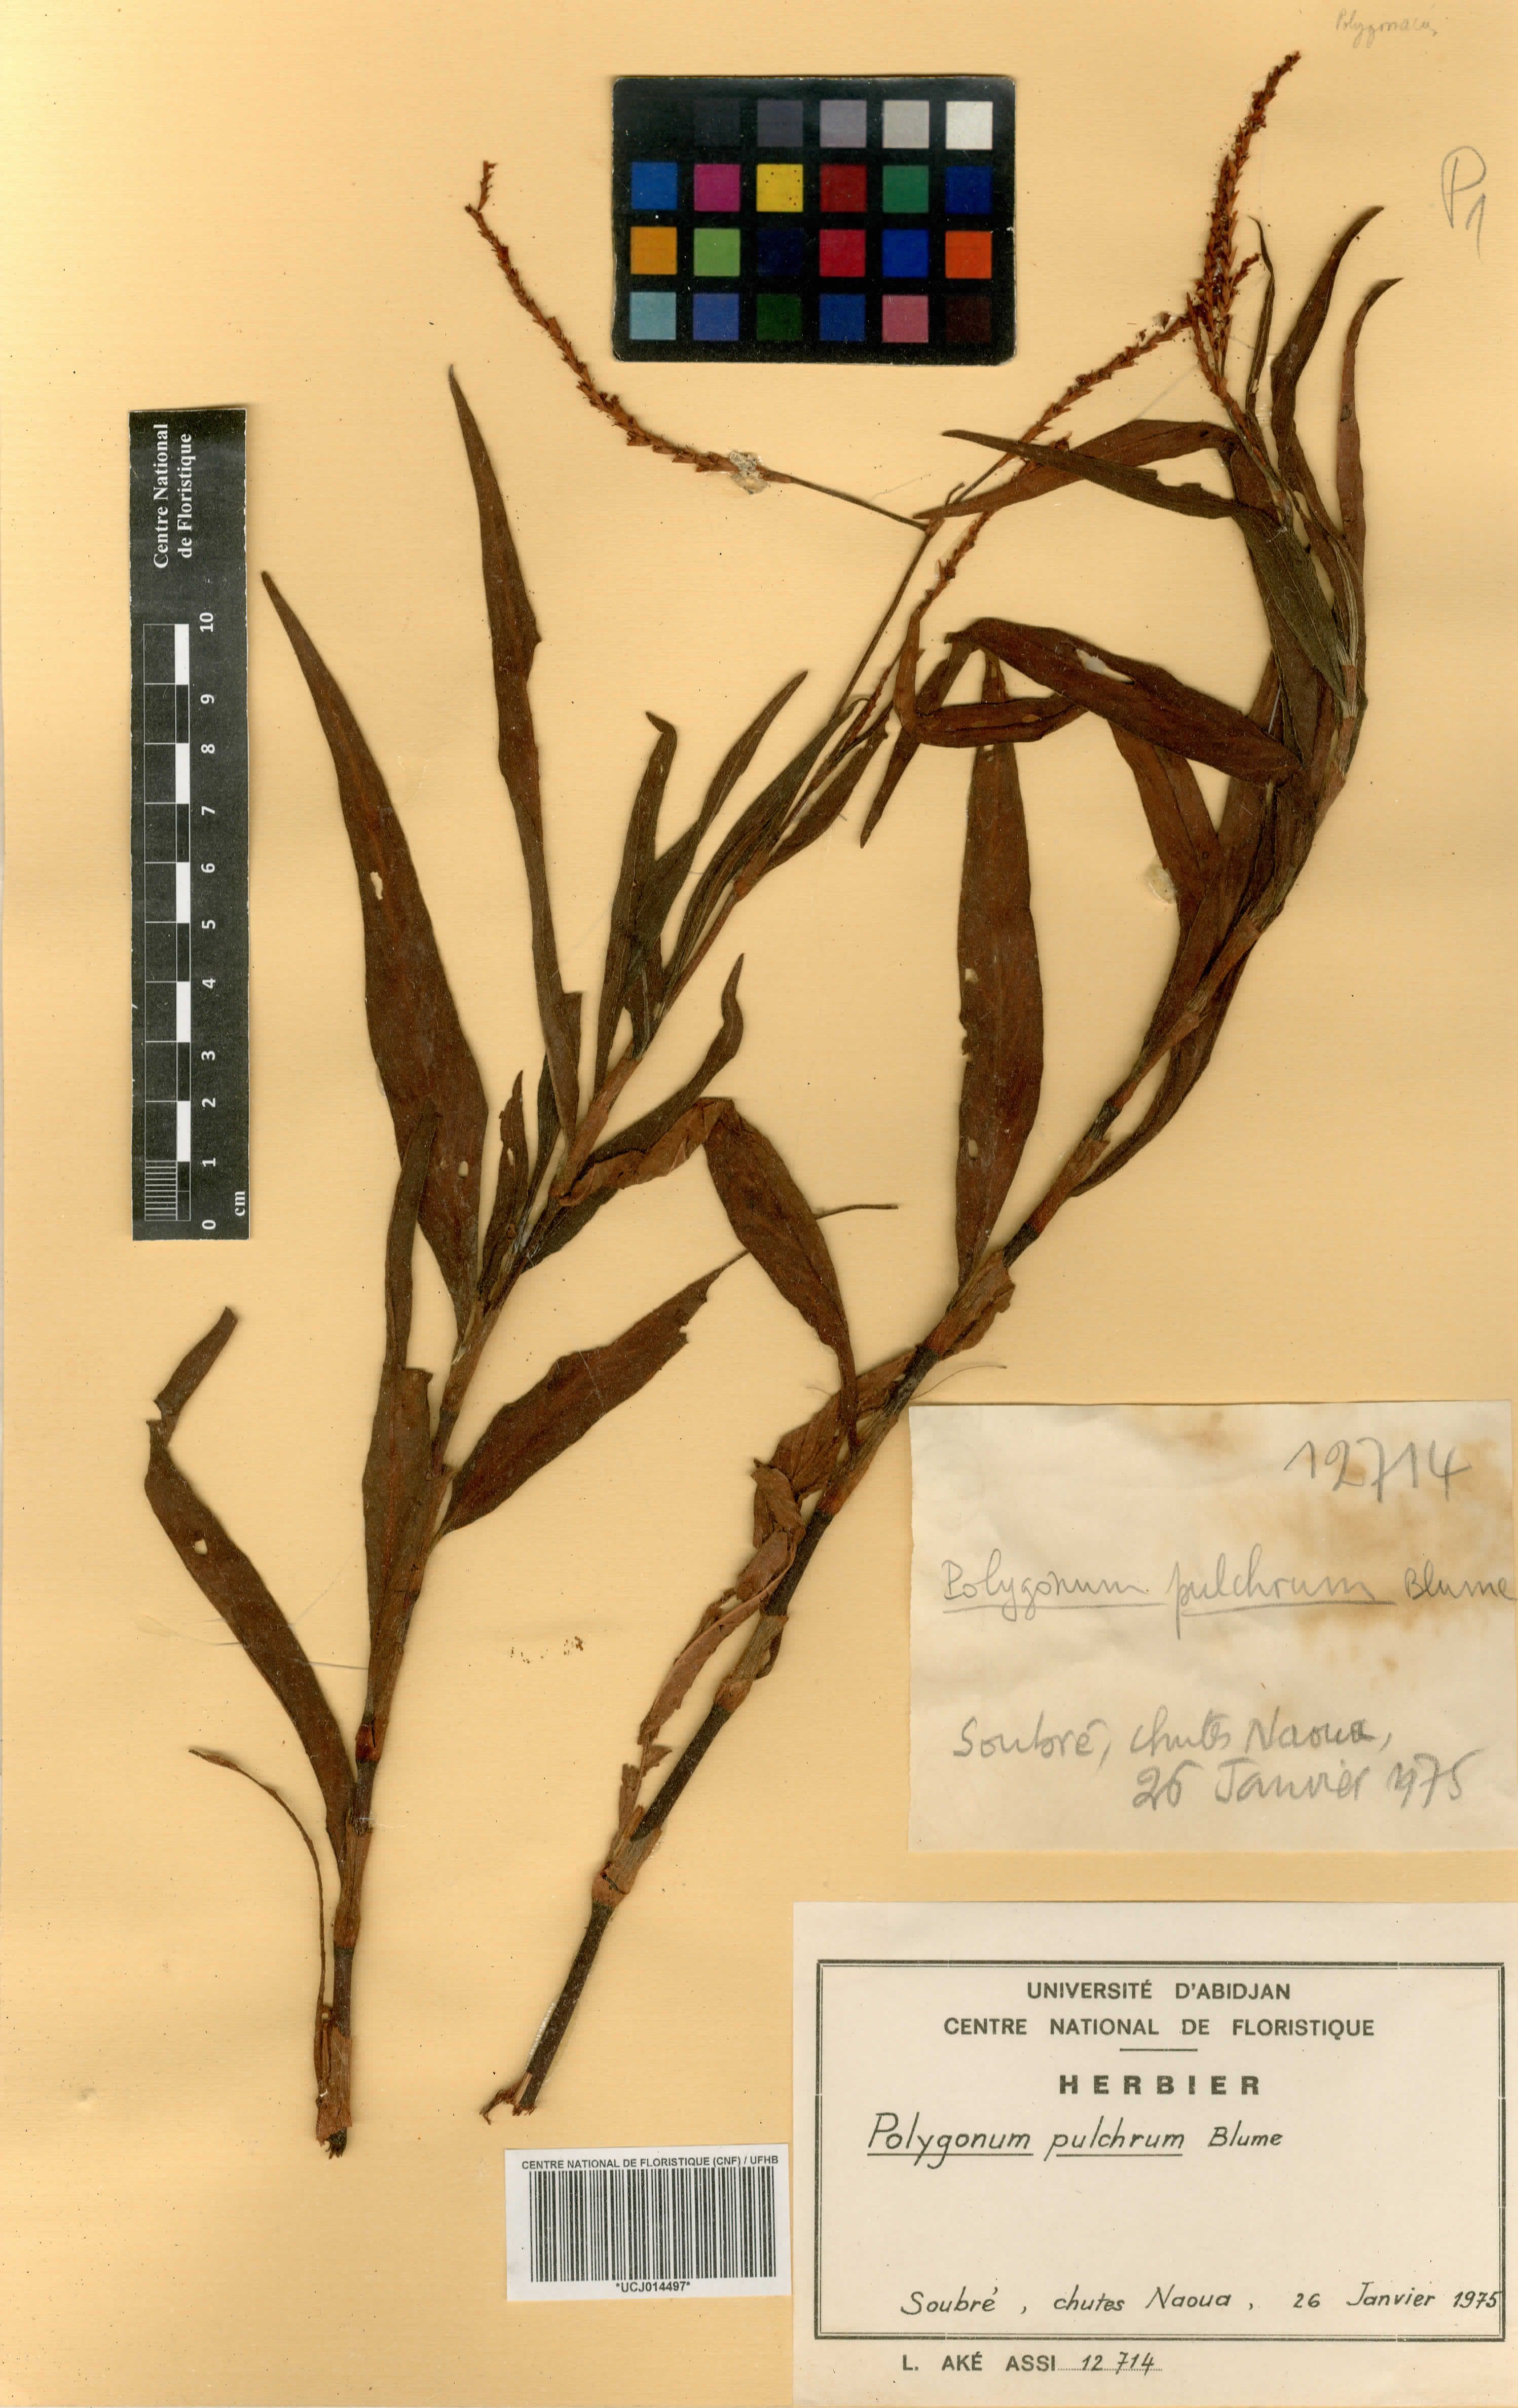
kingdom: Plantae
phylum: Tracheophyta
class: Magnoliopsida
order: Caryophyllales
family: Polygonaceae
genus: Persicaria
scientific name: Persicaria pulchra
